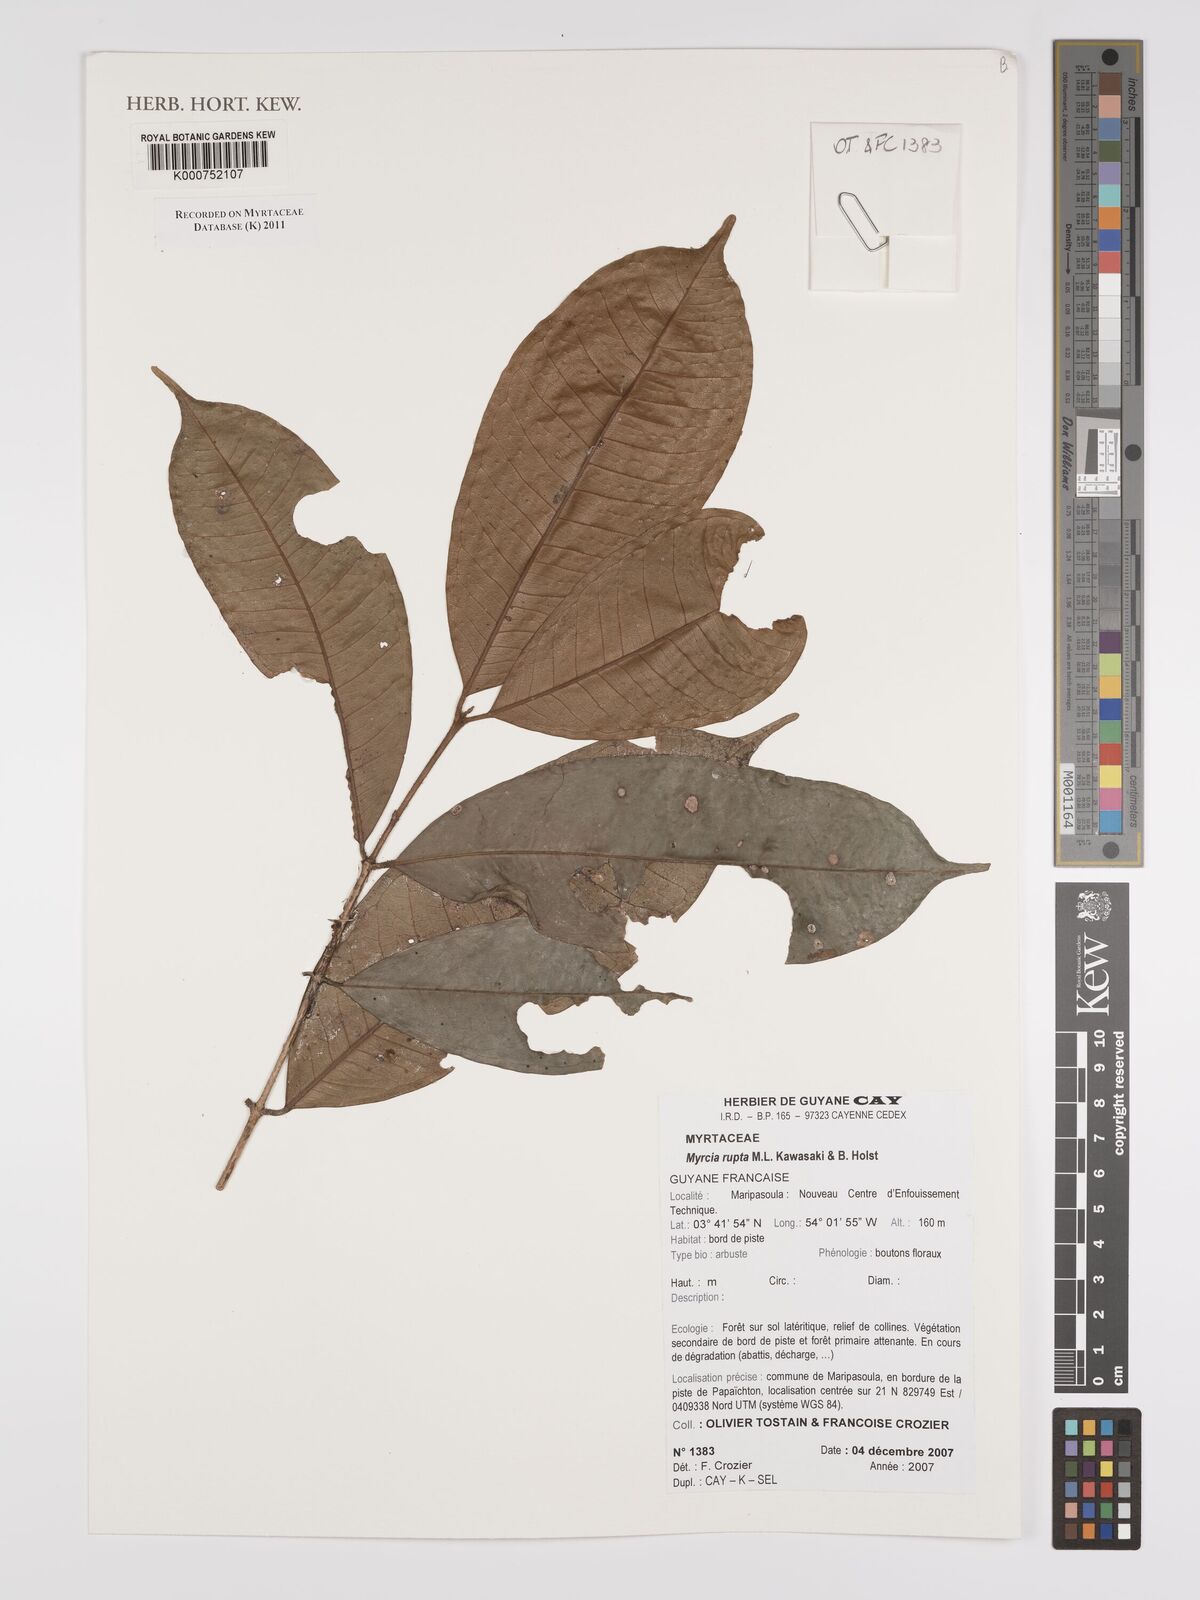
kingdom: Plantae
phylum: Tracheophyta
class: Magnoliopsida
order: Myrtales
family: Myrtaceae
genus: Myrcia
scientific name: Myrcia rupta
